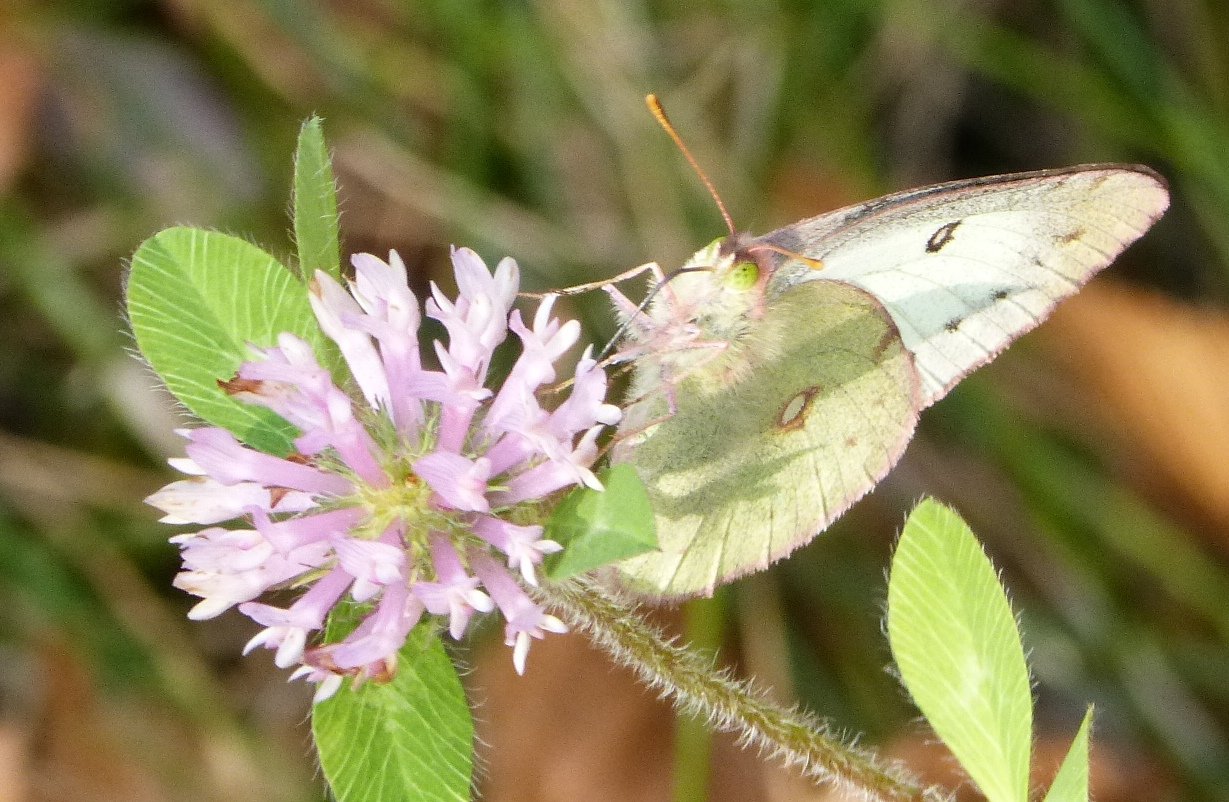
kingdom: Animalia
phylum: Arthropoda
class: Insecta
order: Lepidoptera
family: Pieridae
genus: Colias
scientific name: Colias philodice
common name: Clouded Sulphur
